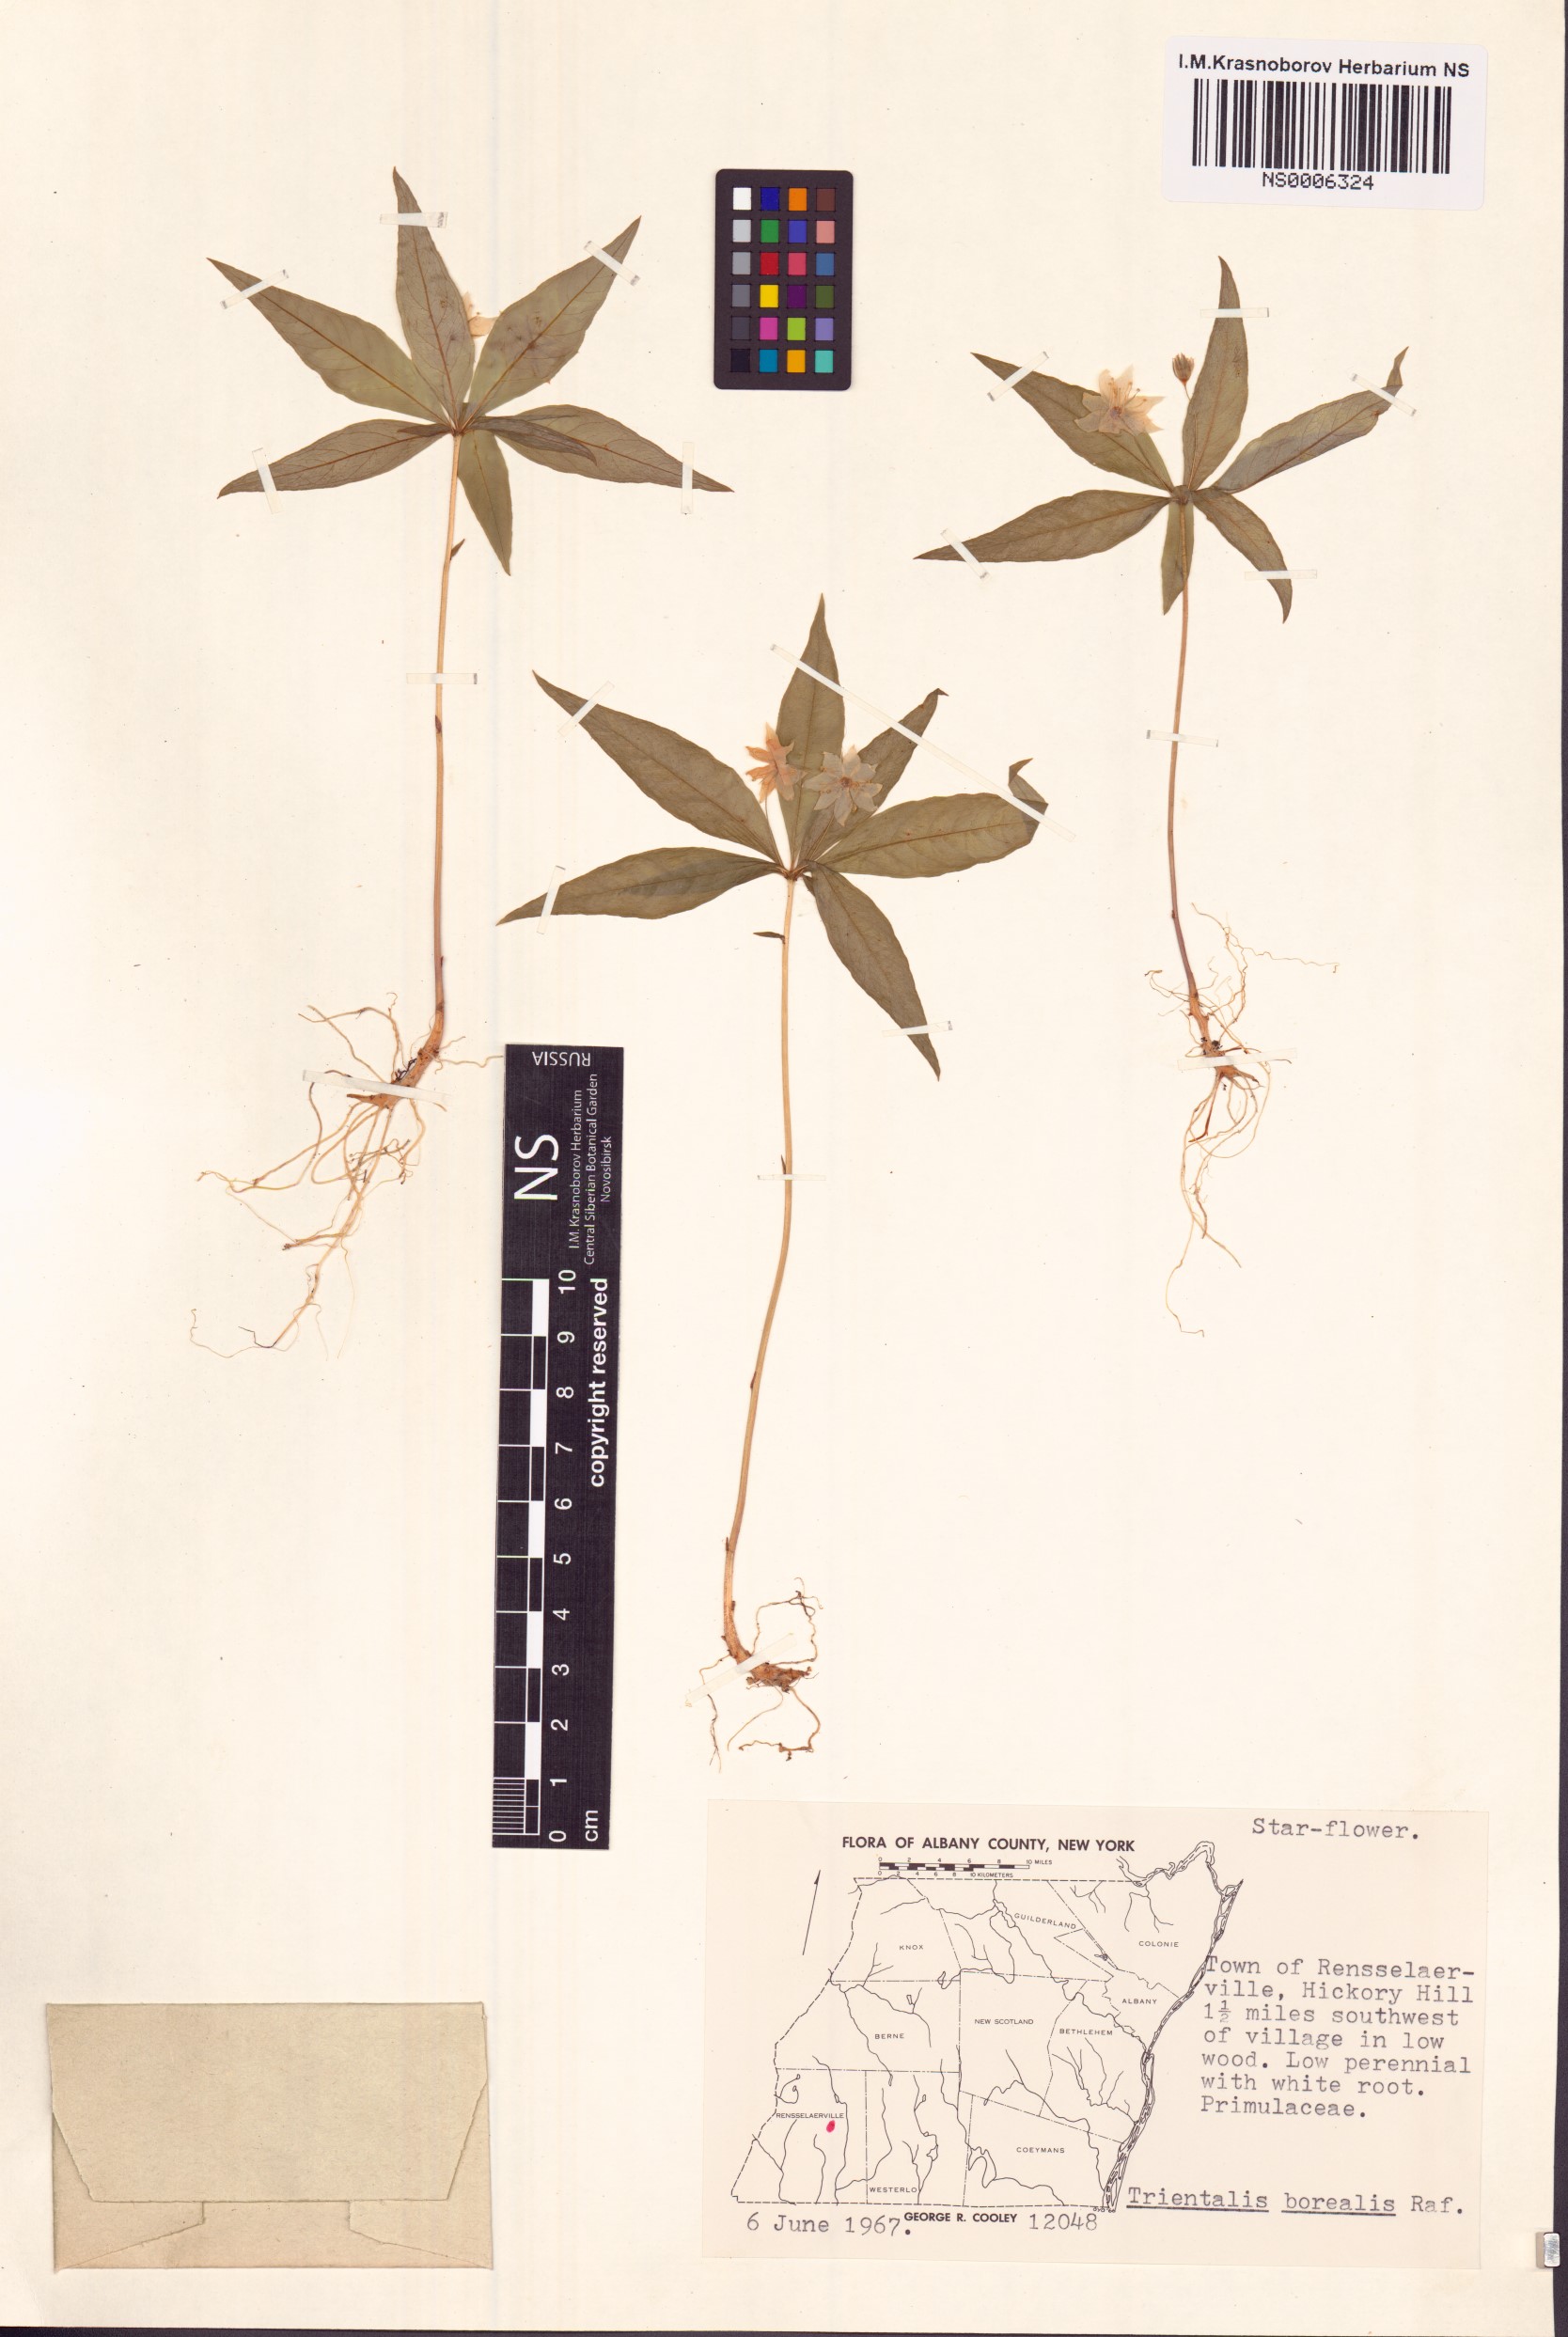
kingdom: Plantae
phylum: Tracheophyta
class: Magnoliopsida
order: Ericales
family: Primulaceae
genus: Lysimachia
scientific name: Lysimachia borealis
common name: American starflower
